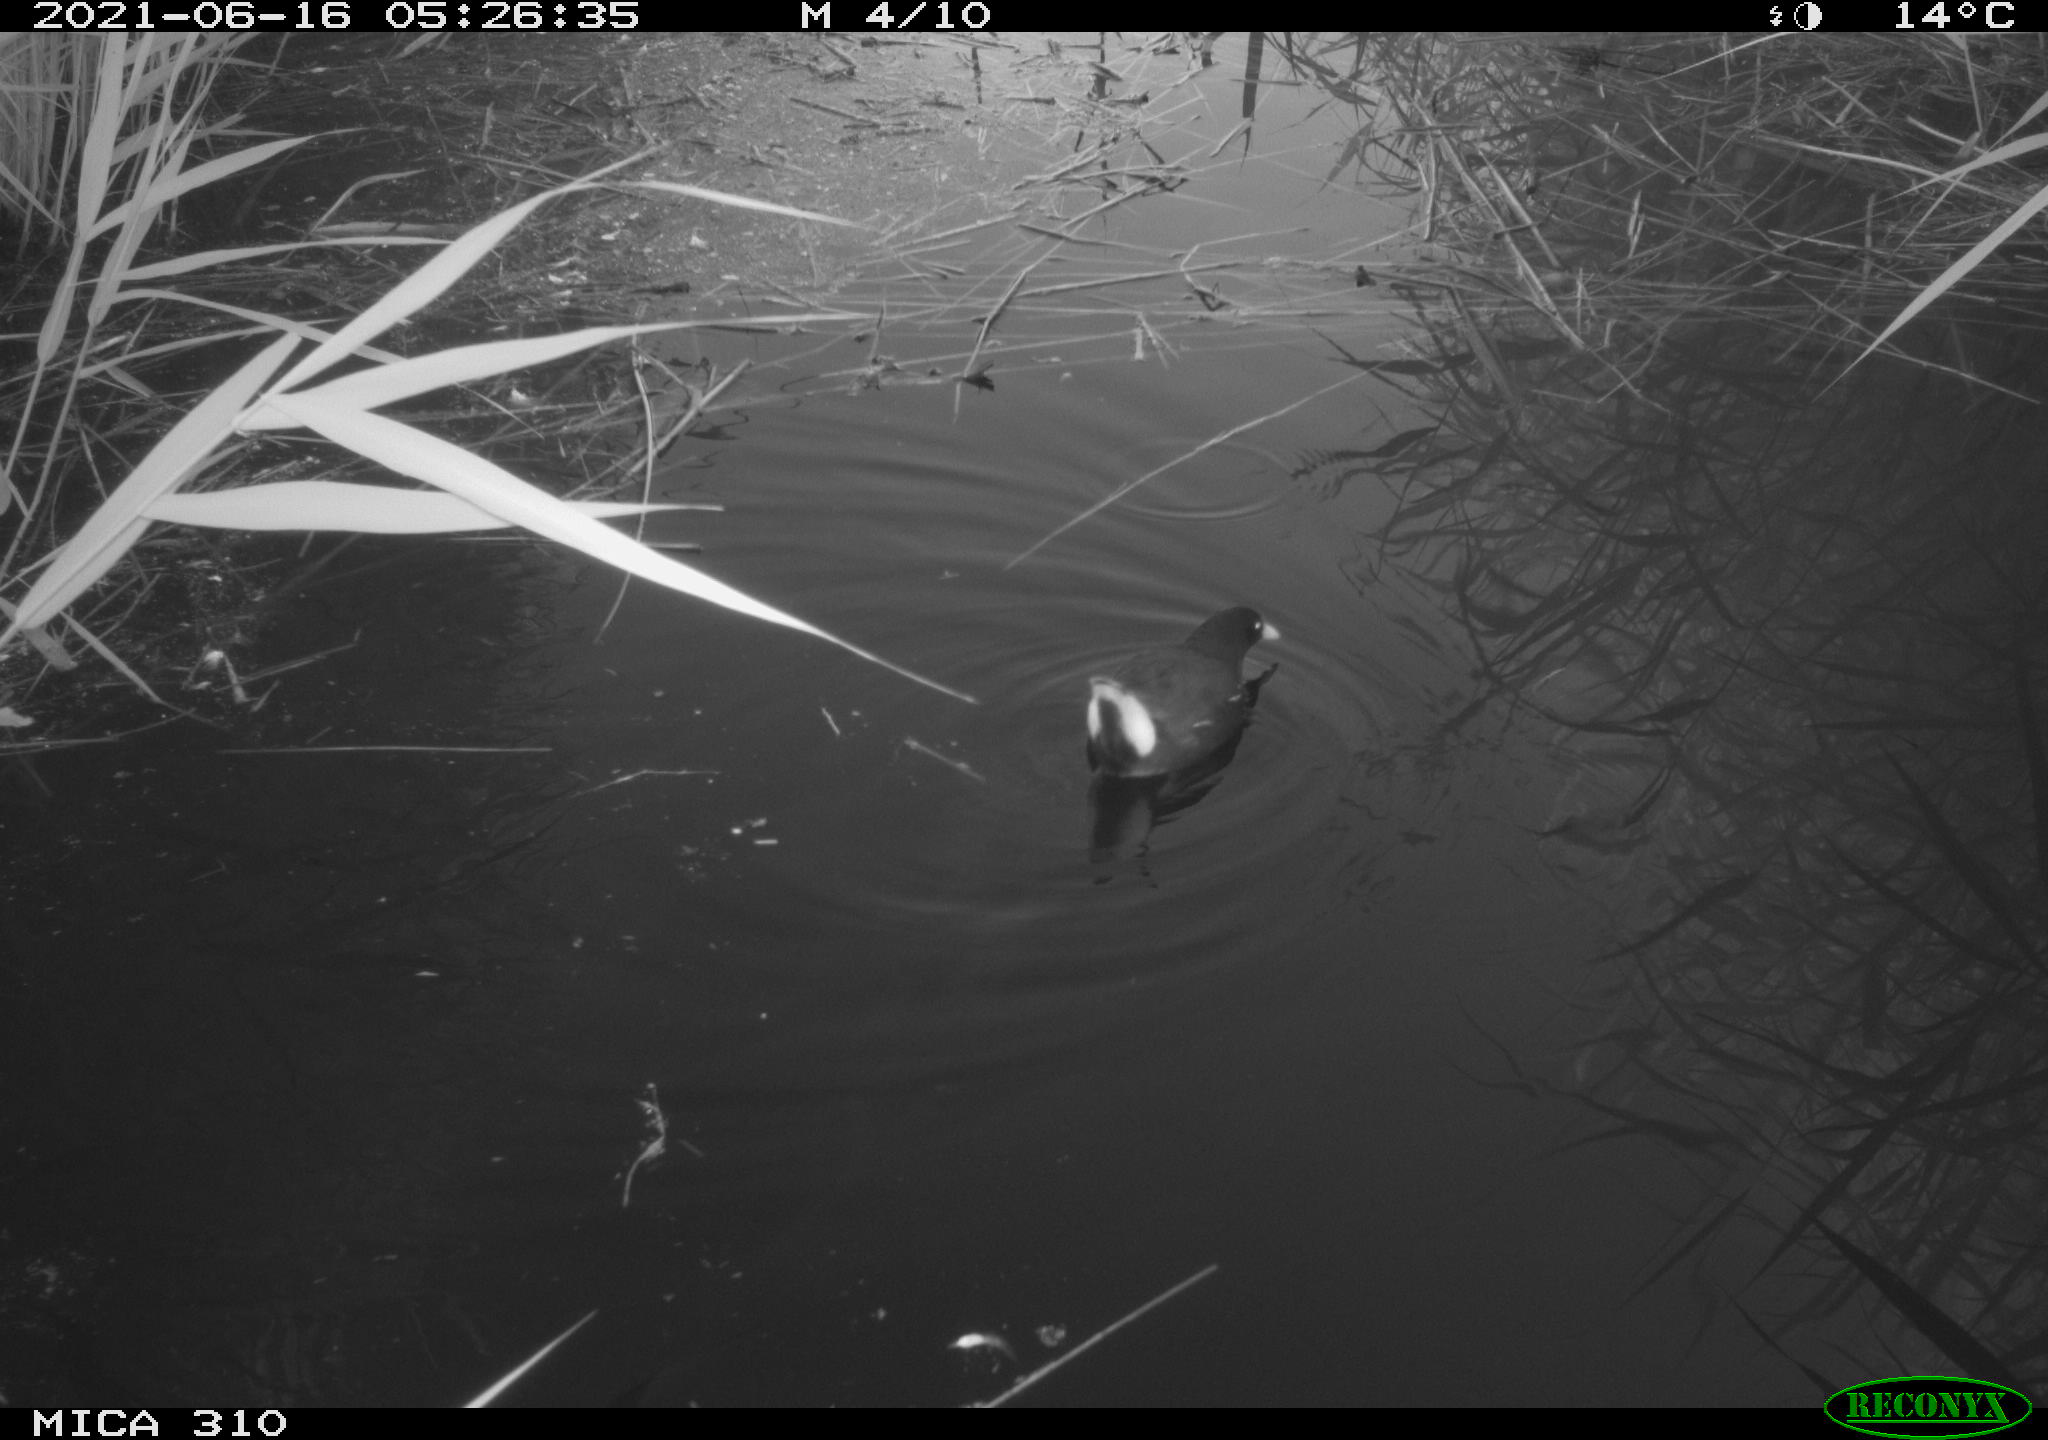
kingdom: Animalia
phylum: Chordata
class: Aves
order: Gruiformes
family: Rallidae
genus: Gallinula
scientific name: Gallinula chloropus
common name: Common moorhen
